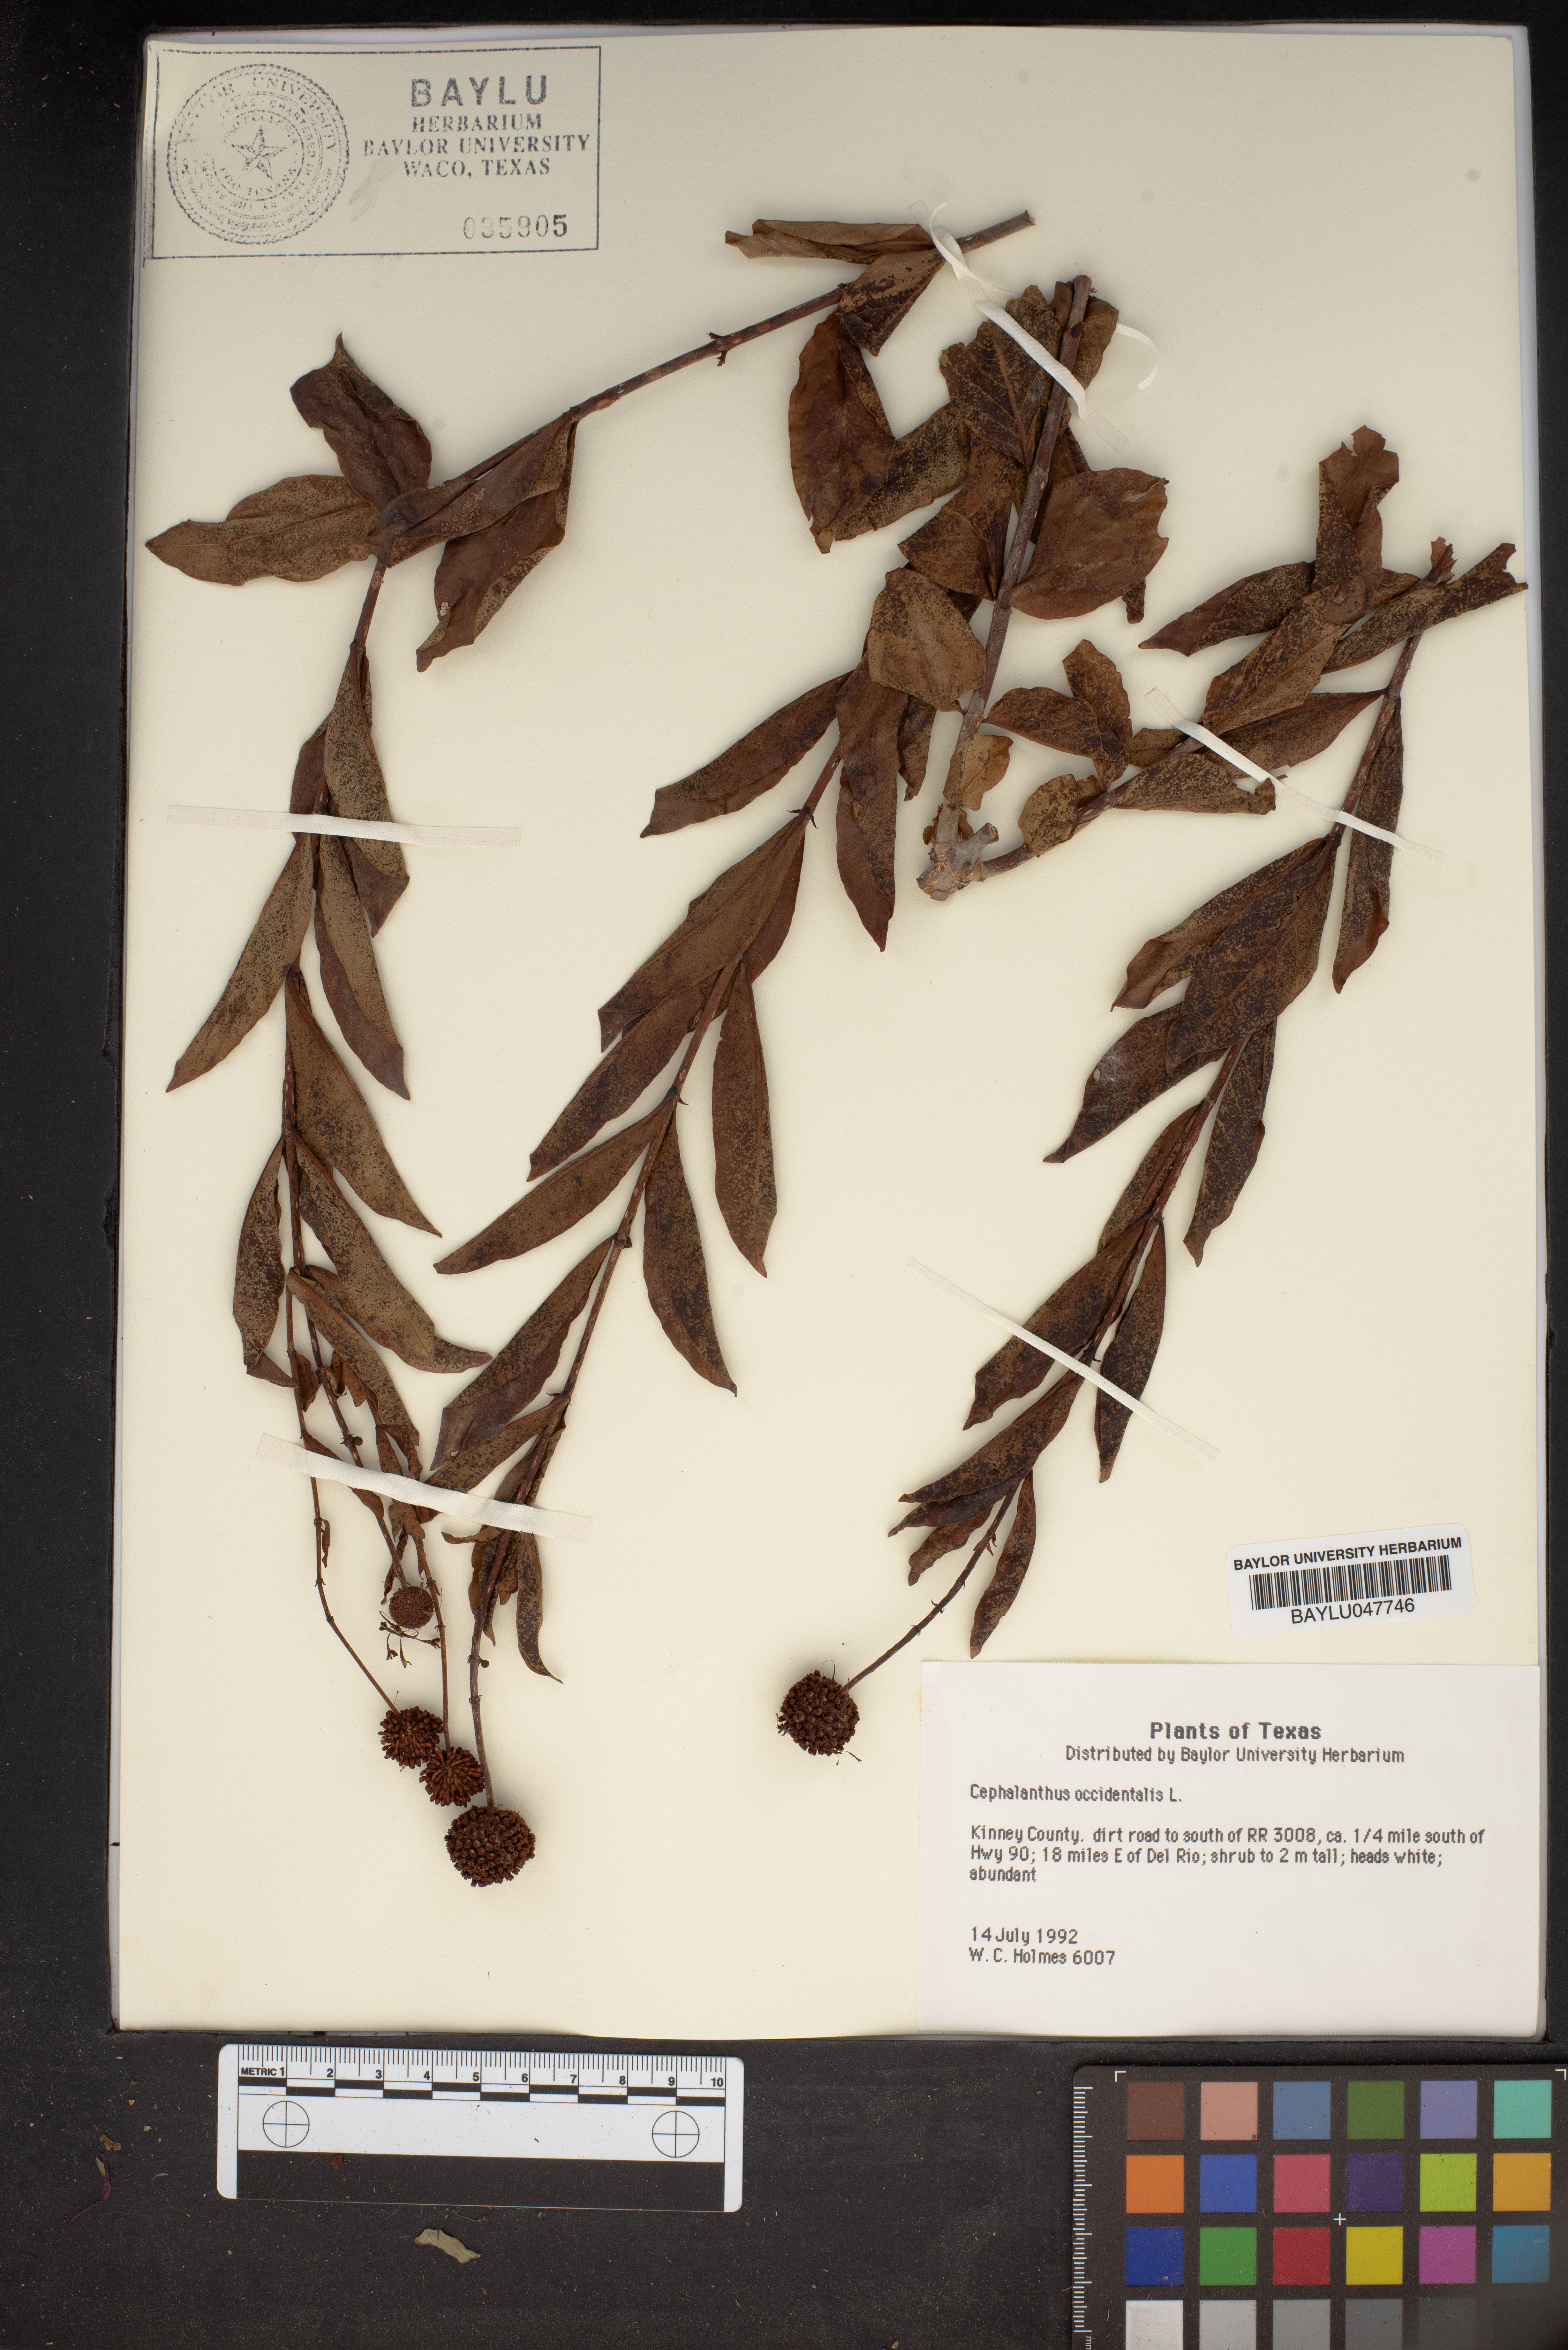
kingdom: Plantae
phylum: Tracheophyta
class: Magnoliopsida
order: Gentianales
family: Rubiaceae
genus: Cephalanthus
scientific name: Cephalanthus occidentalis
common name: Button-willow
